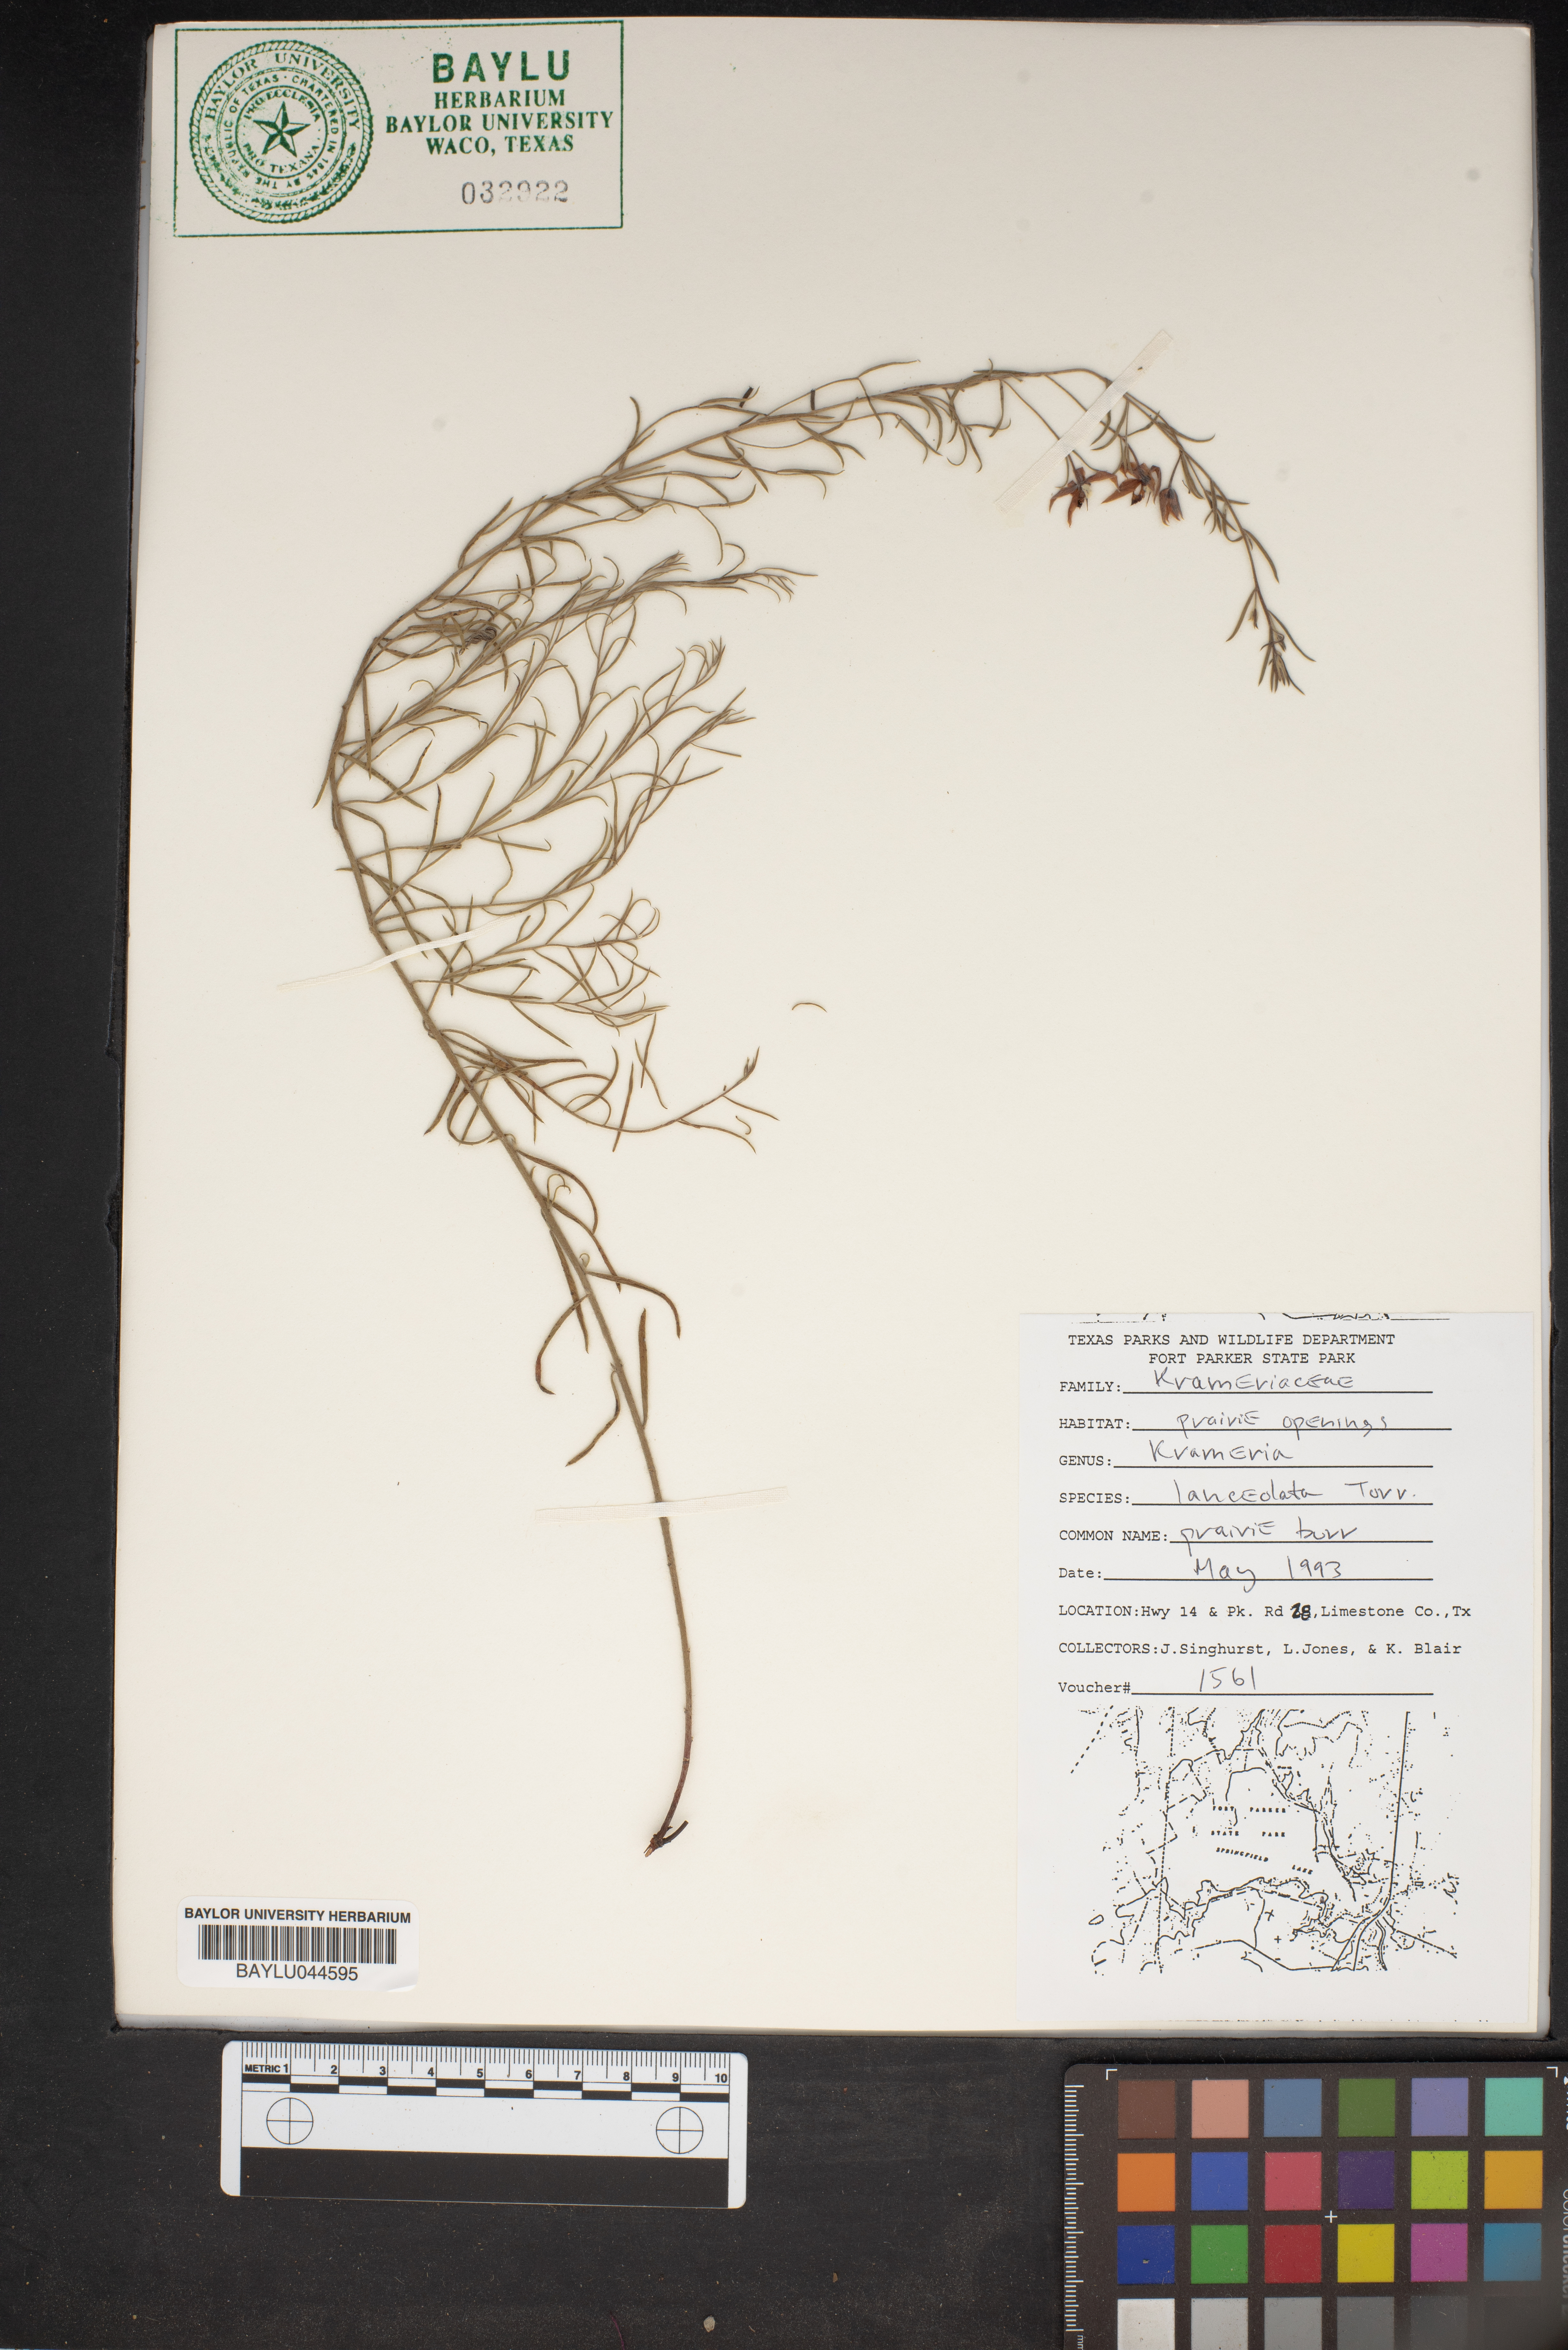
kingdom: Plantae
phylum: Tracheophyta
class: Magnoliopsida
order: Zygophyllales
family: Krameriaceae
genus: Krameria
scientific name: Krameria lanceolata
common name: Ratany
